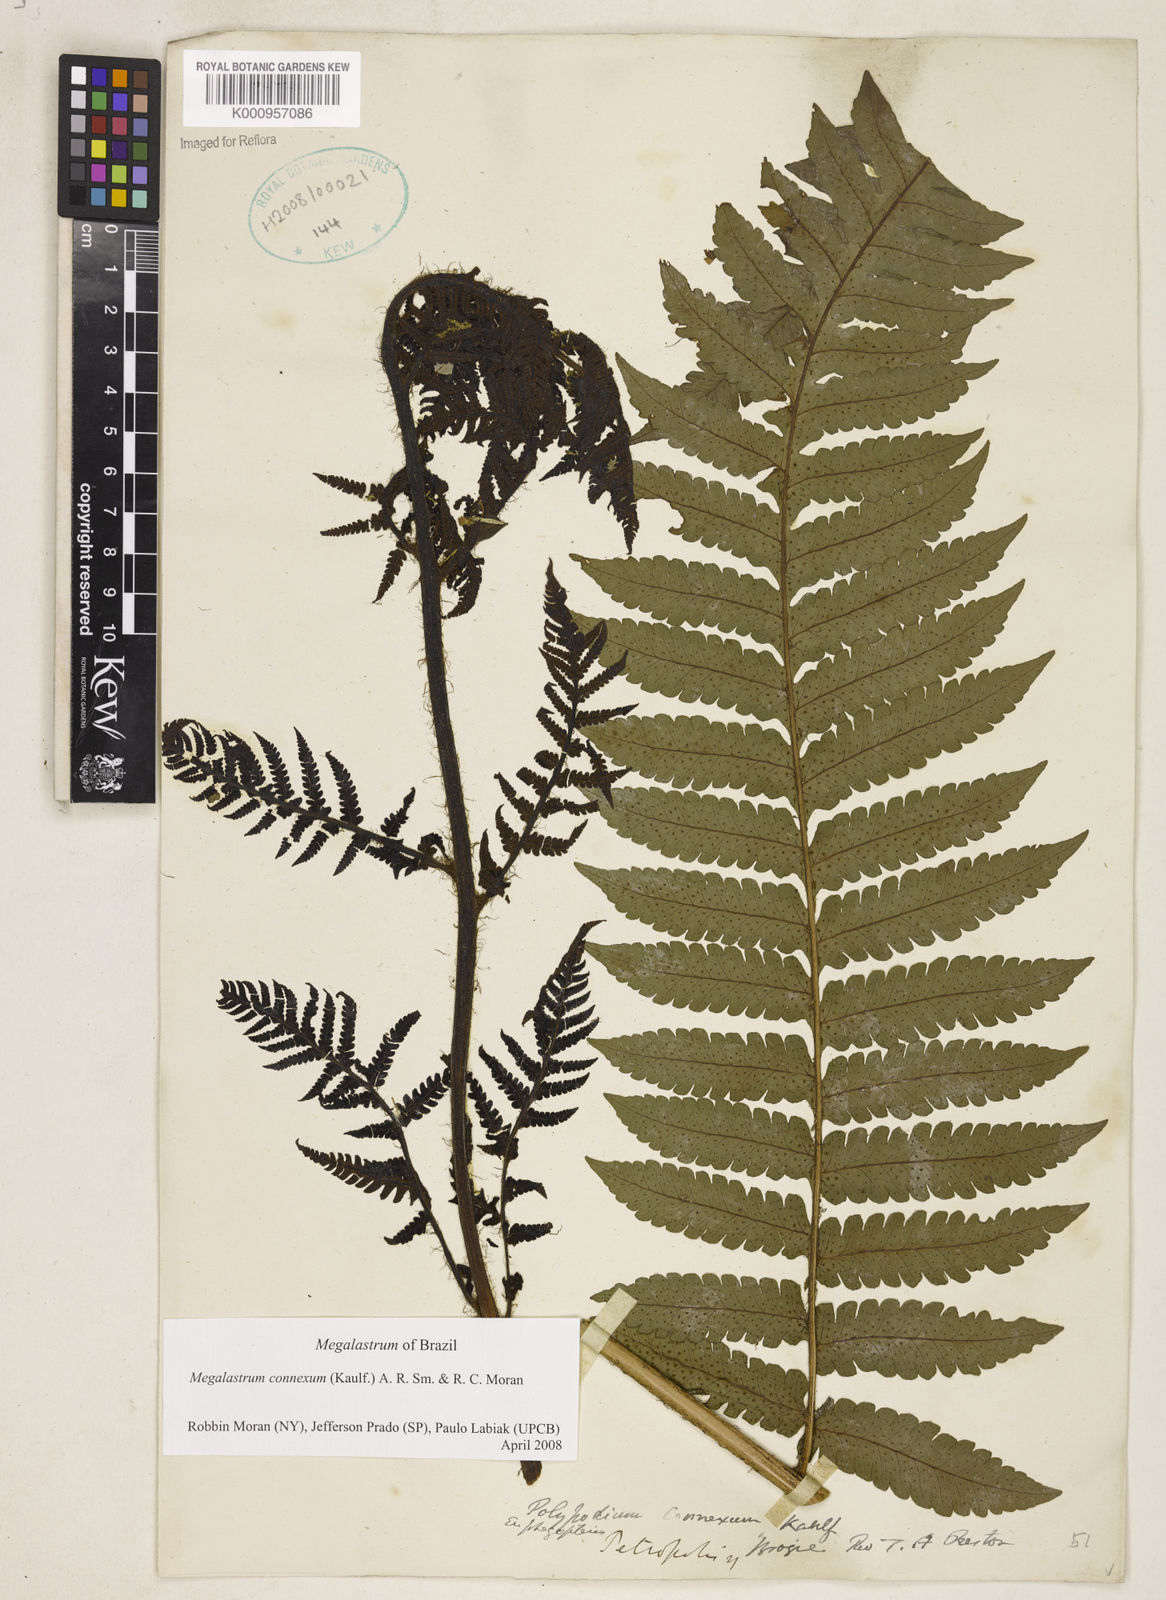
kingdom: Plantae
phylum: Tracheophyta
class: Polypodiopsida
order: Polypodiales
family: Dryopteridaceae
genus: Megalastrum
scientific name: Megalastrum connexum
